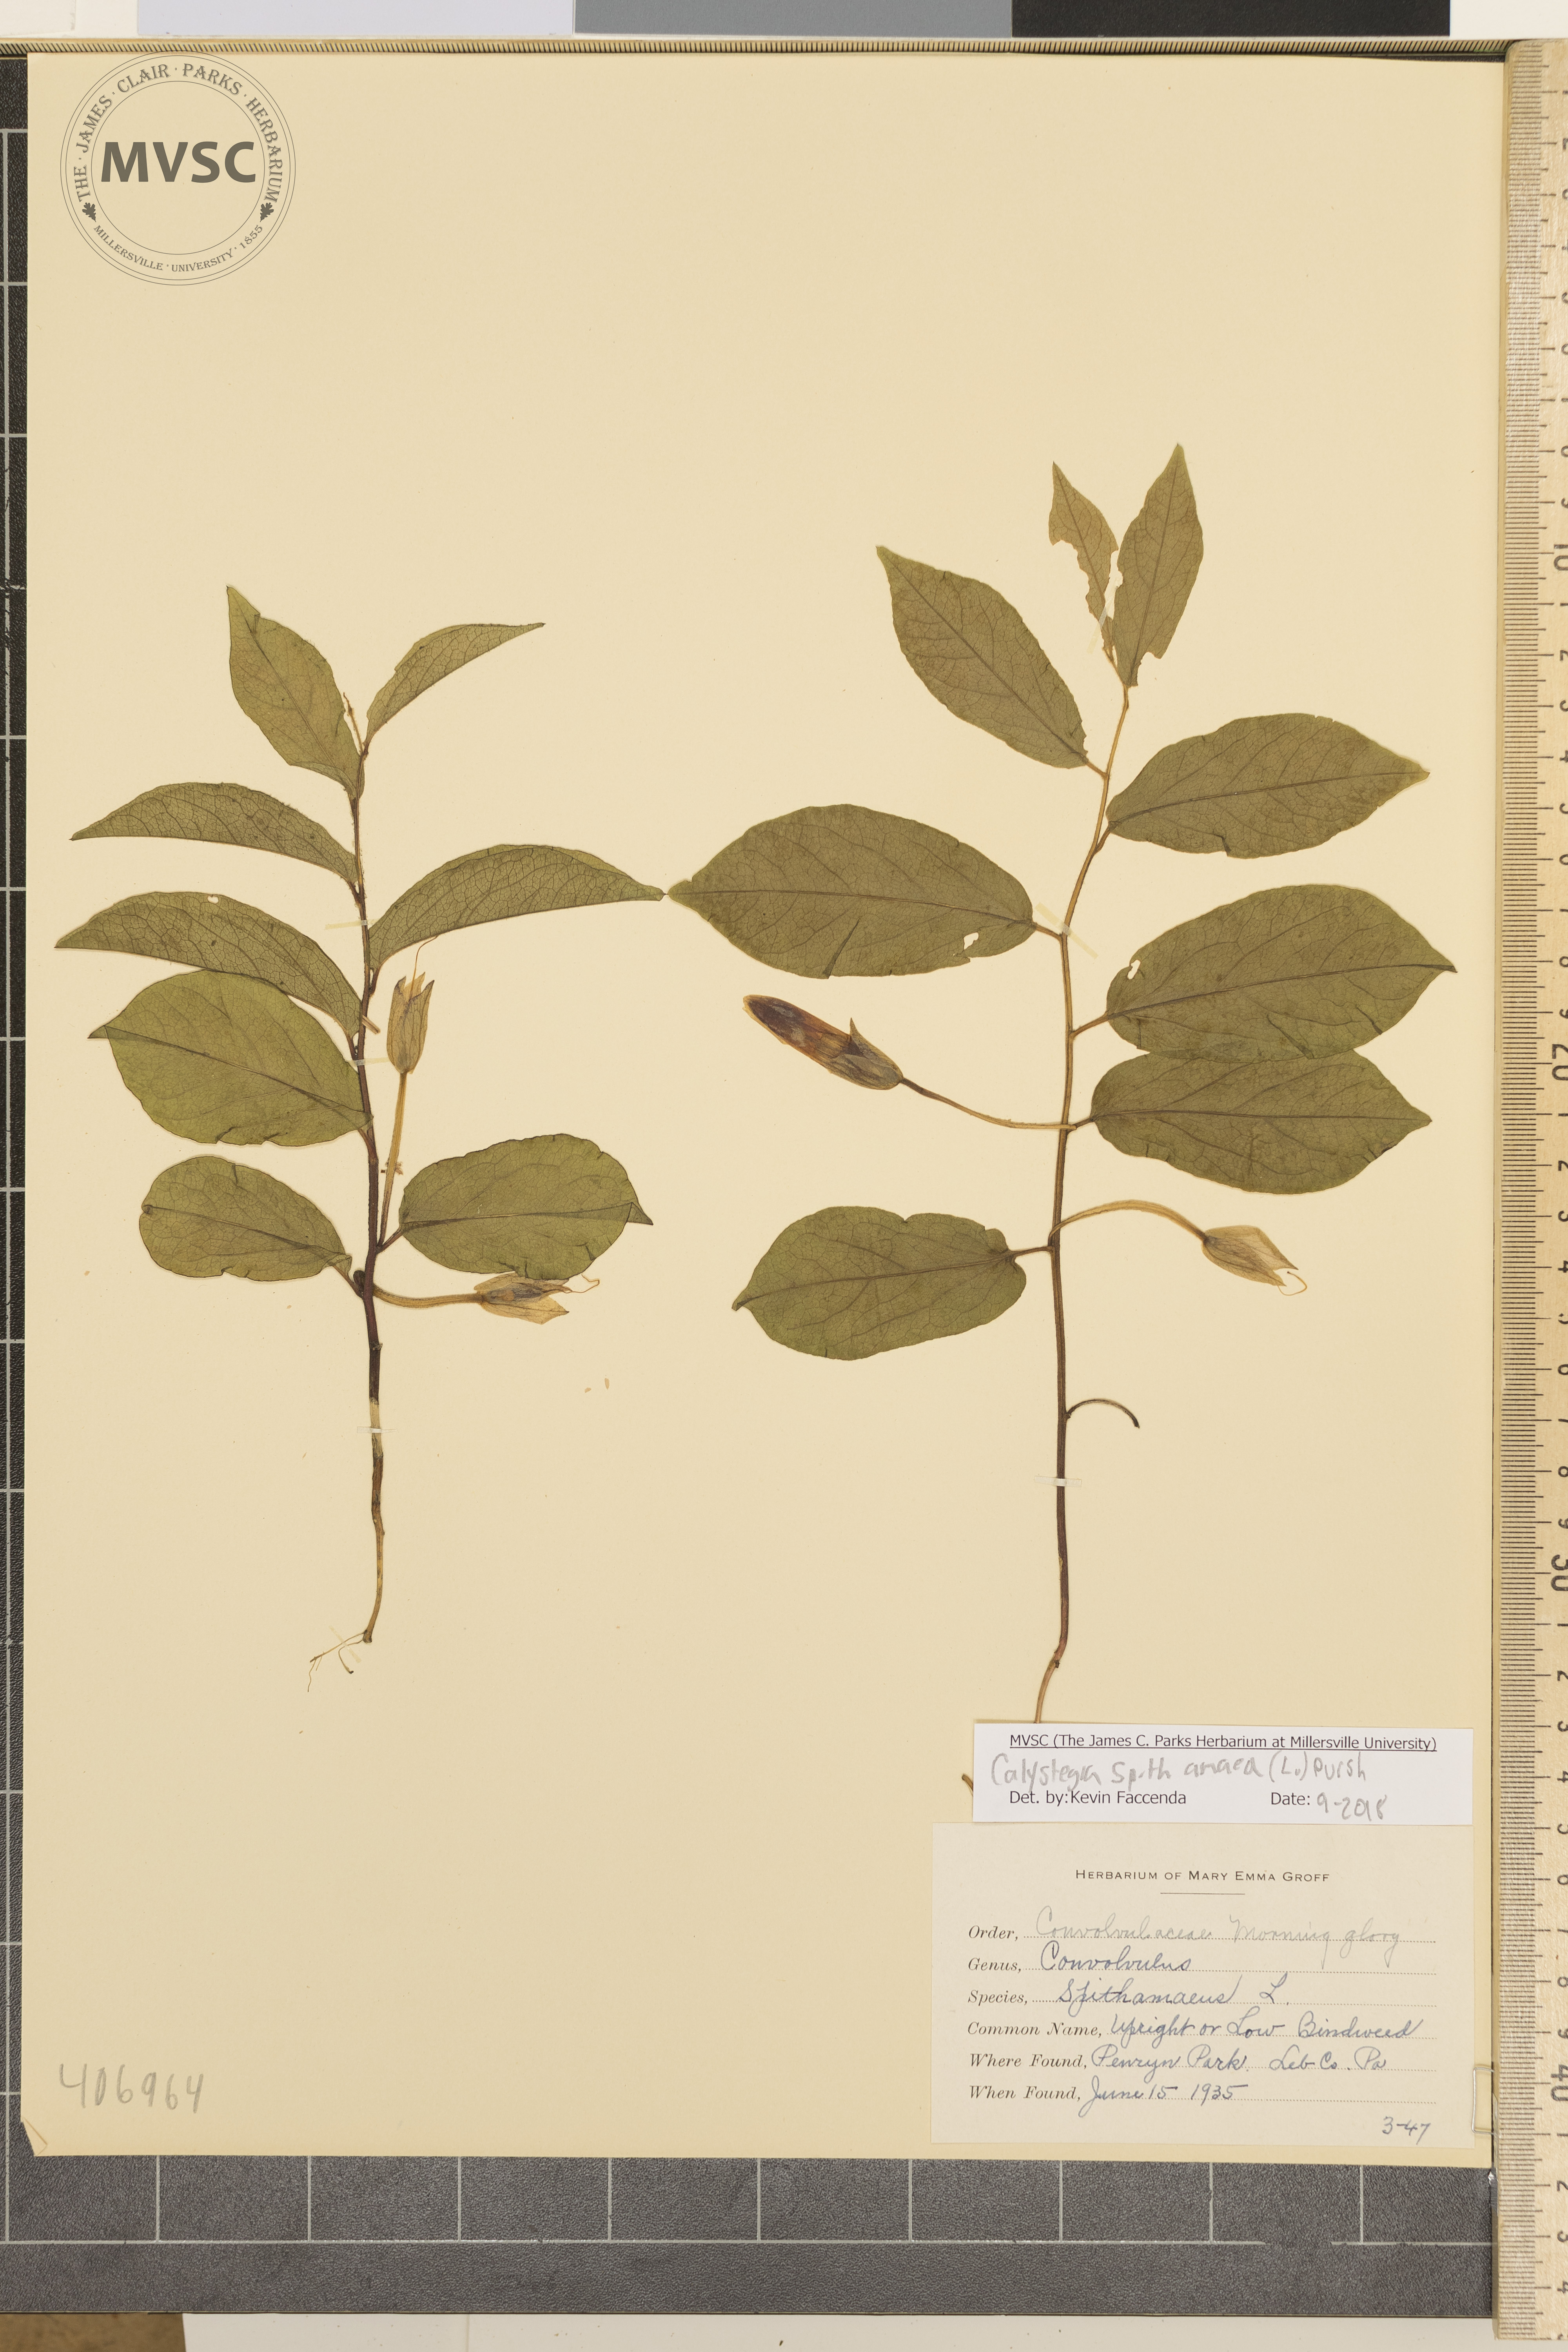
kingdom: Plantae
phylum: Tracheophyta
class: Magnoliopsida
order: Solanales
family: Convolvulaceae
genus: Calystegia
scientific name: Calystegia spithamaea
